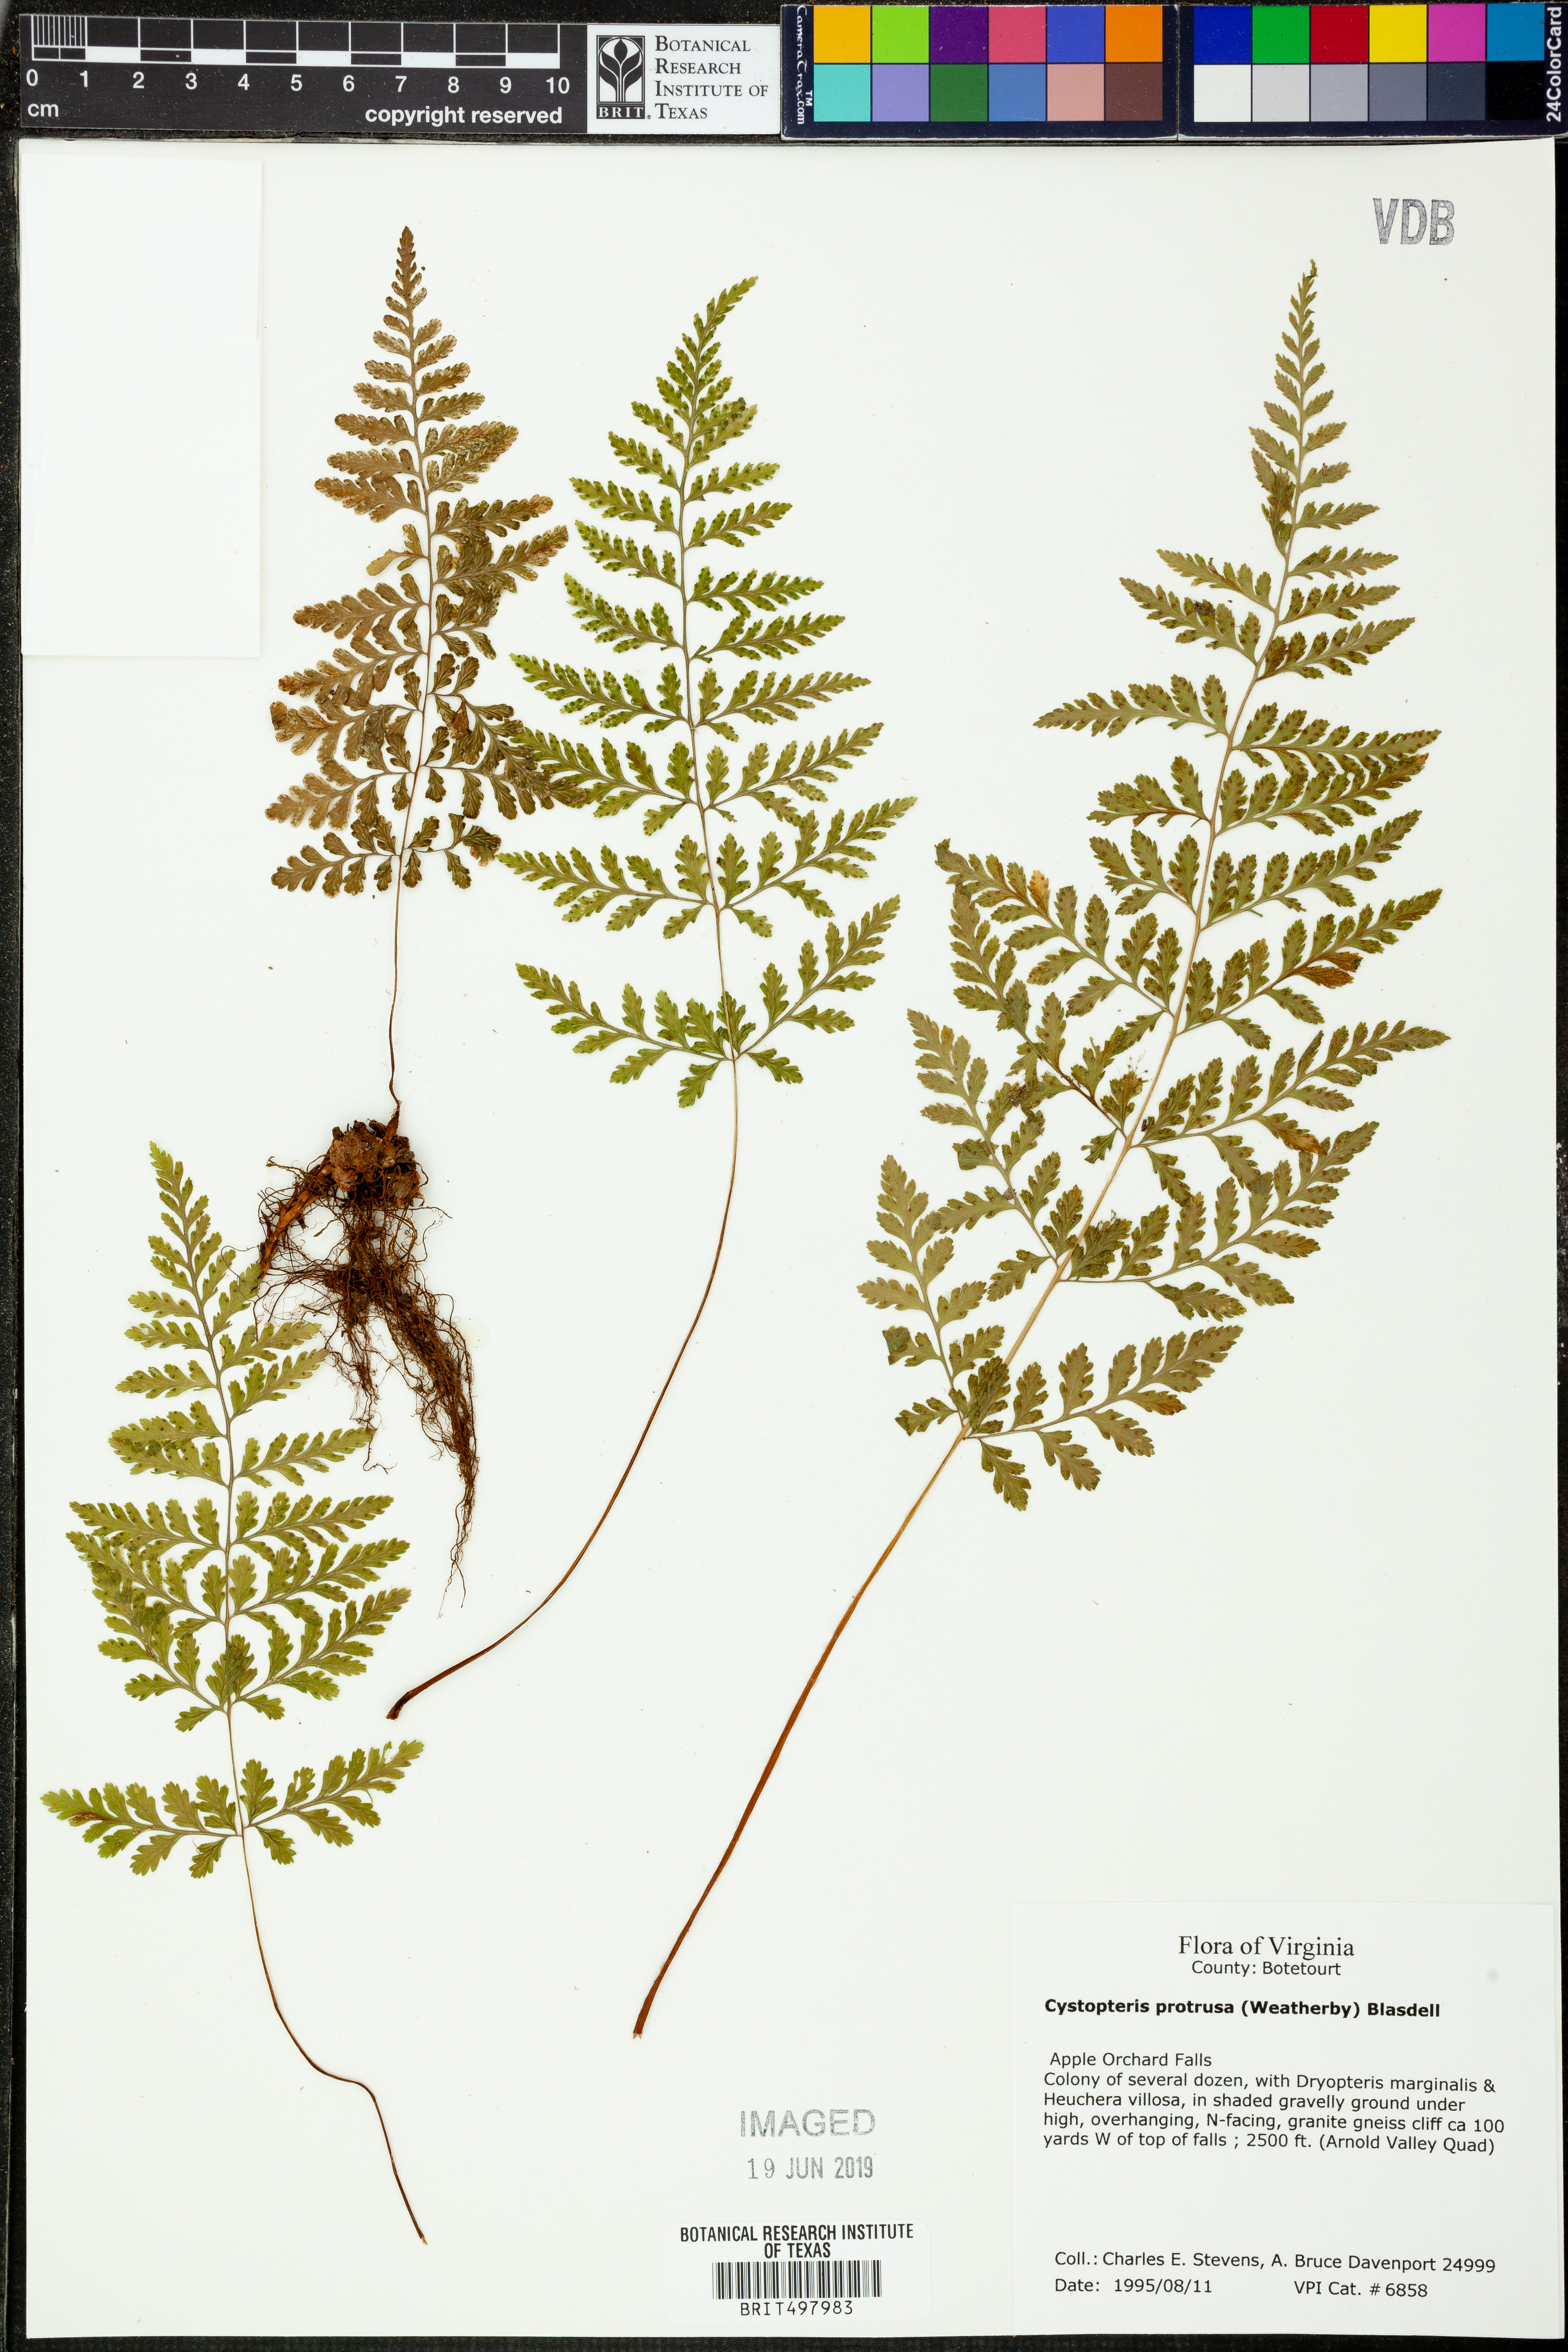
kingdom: Plantae
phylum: Tracheophyta
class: Polypodiopsida
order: Polypodiales
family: Cystopteridaceae
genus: Cystopteris
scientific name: Cystopteris protrusa
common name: Lowland brittle fern
